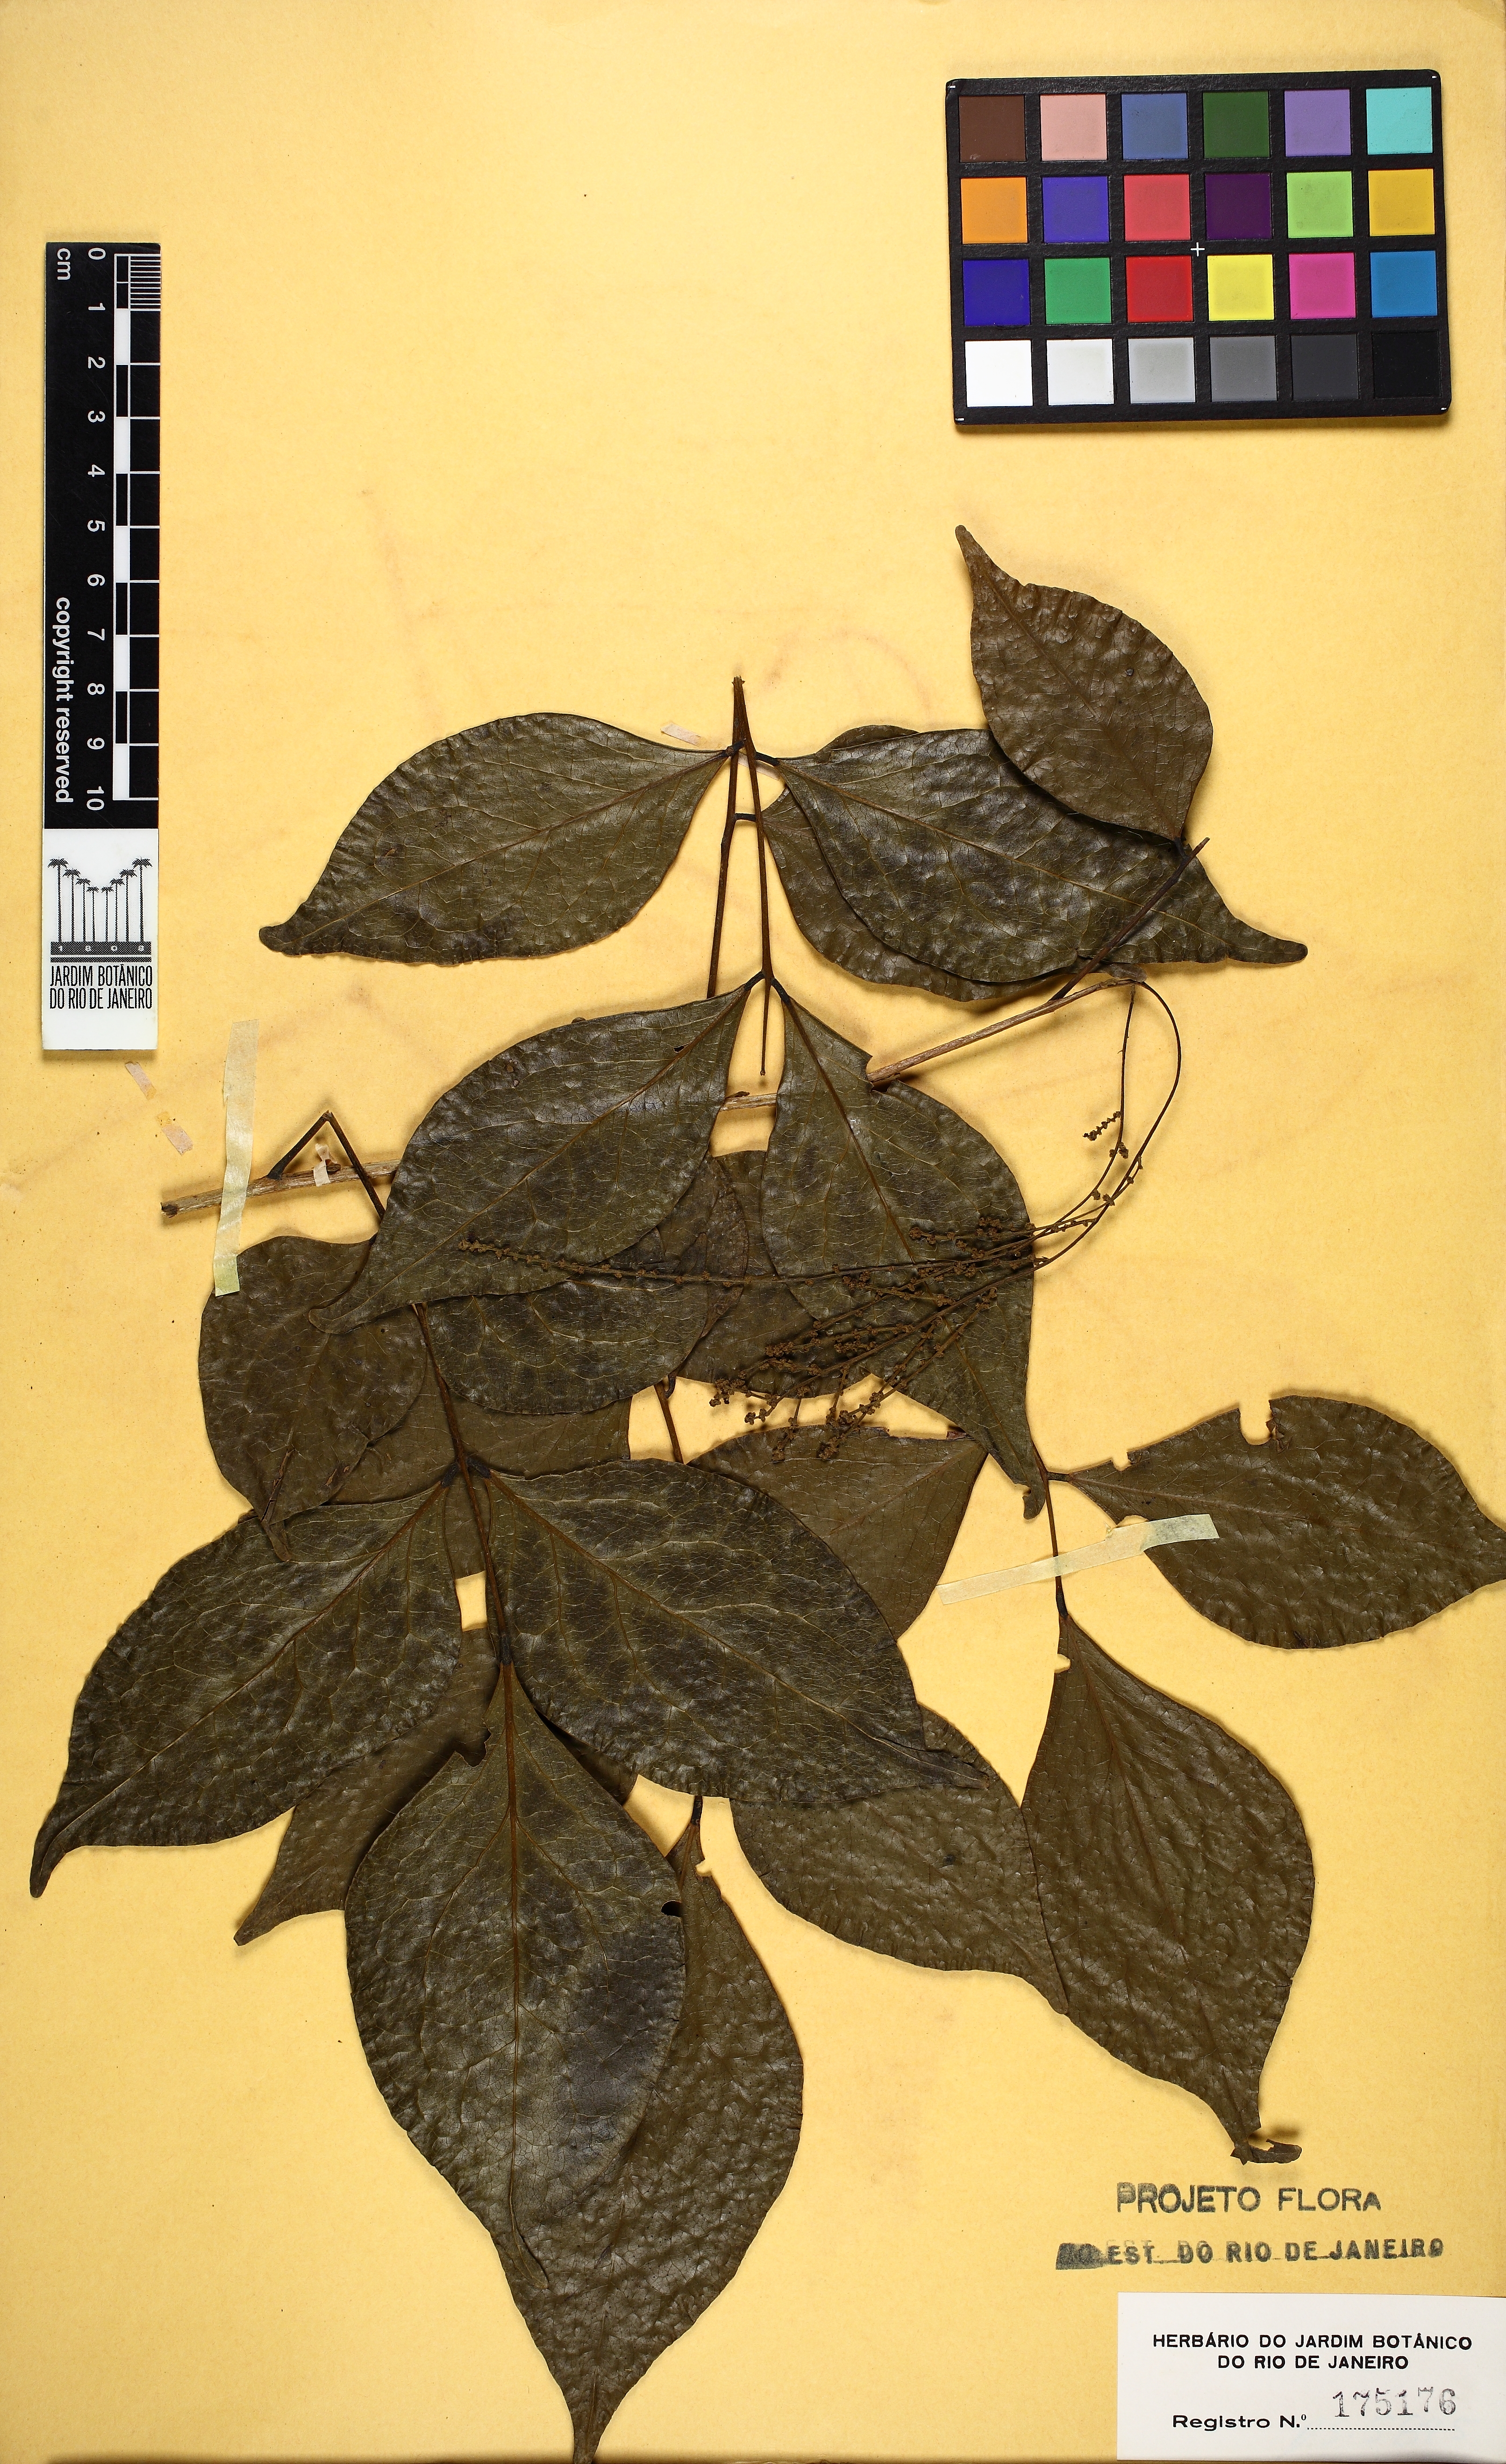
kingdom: Plantae
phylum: Tracheophyta
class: Magnoliopsida
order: Picramniales
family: Picramniaceae
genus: Picramnia
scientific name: Picramnia gardneri
